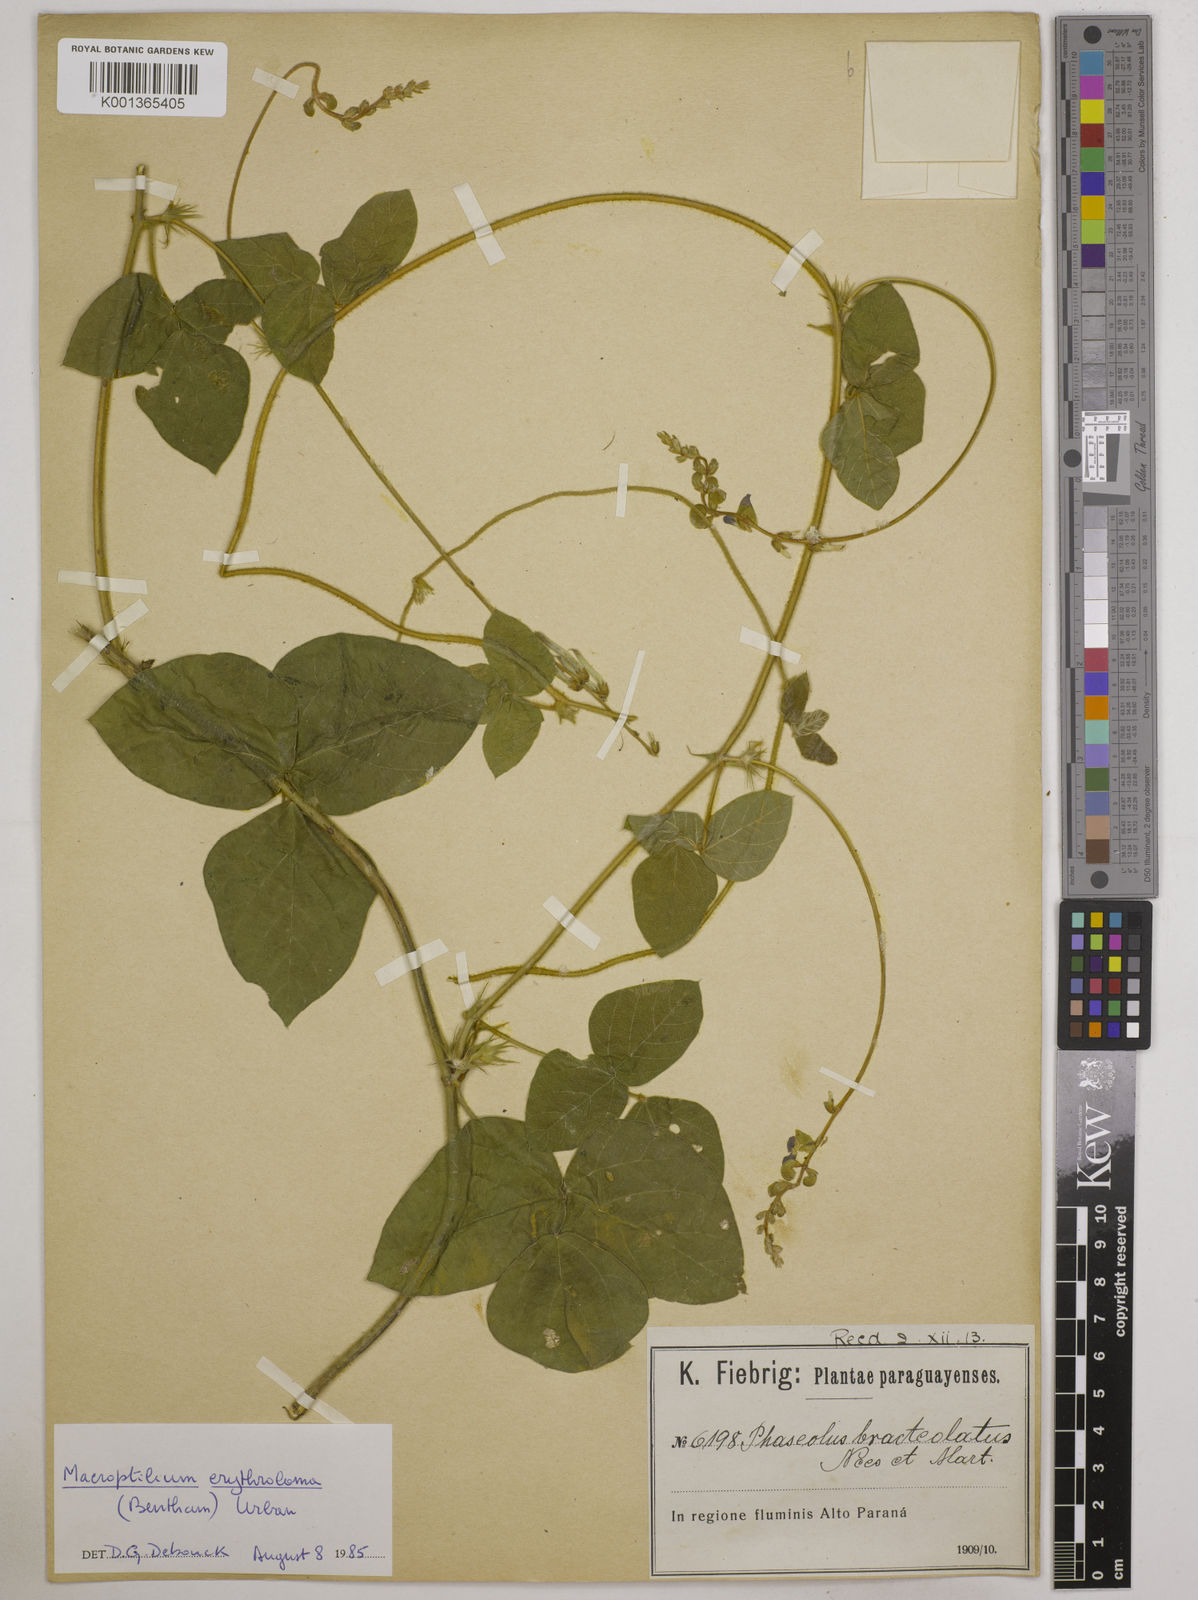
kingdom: Plantae
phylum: Tracheophyta
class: Magnoliopsida
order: Fabales
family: Fabaceae
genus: Macroptilium
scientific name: Macroptilium erythroloma
